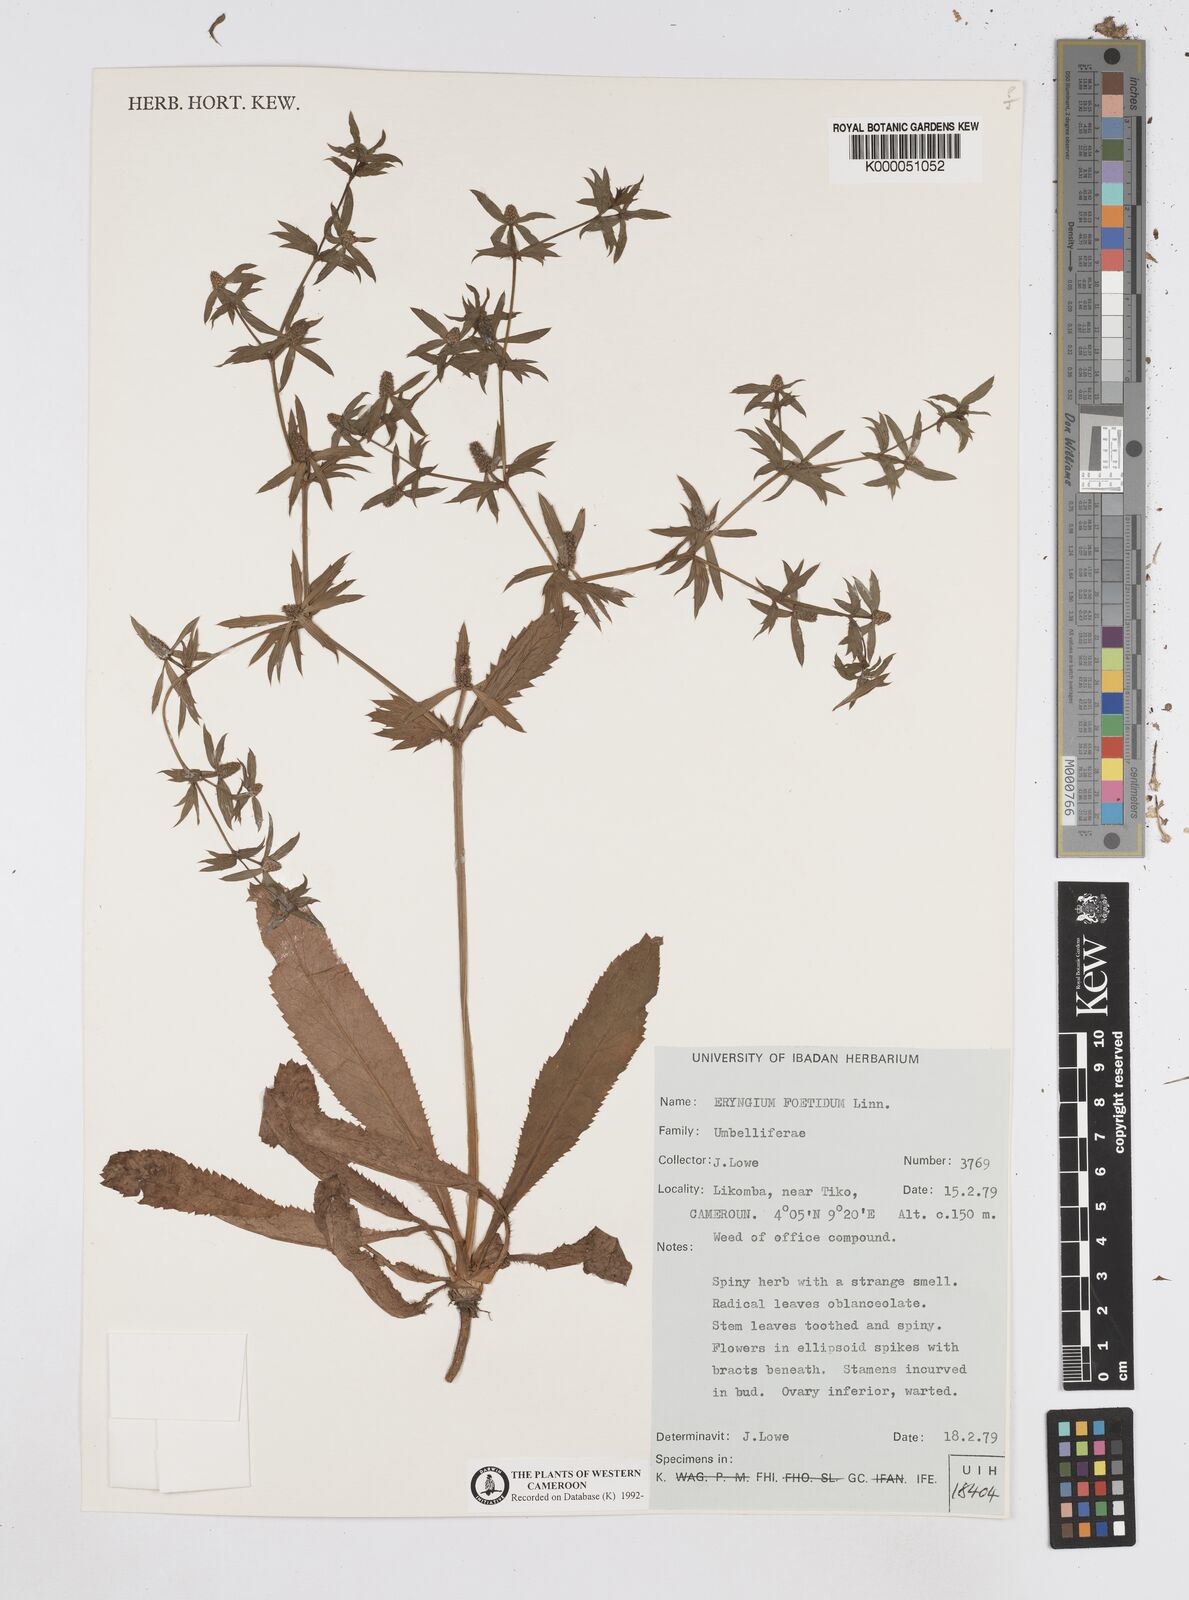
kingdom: Plantae
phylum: Tracheophyta
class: Magnoliopsida
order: Apiales
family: Apiaceae
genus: Eryngium
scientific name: Eryngium foetidum
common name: Fitweed
